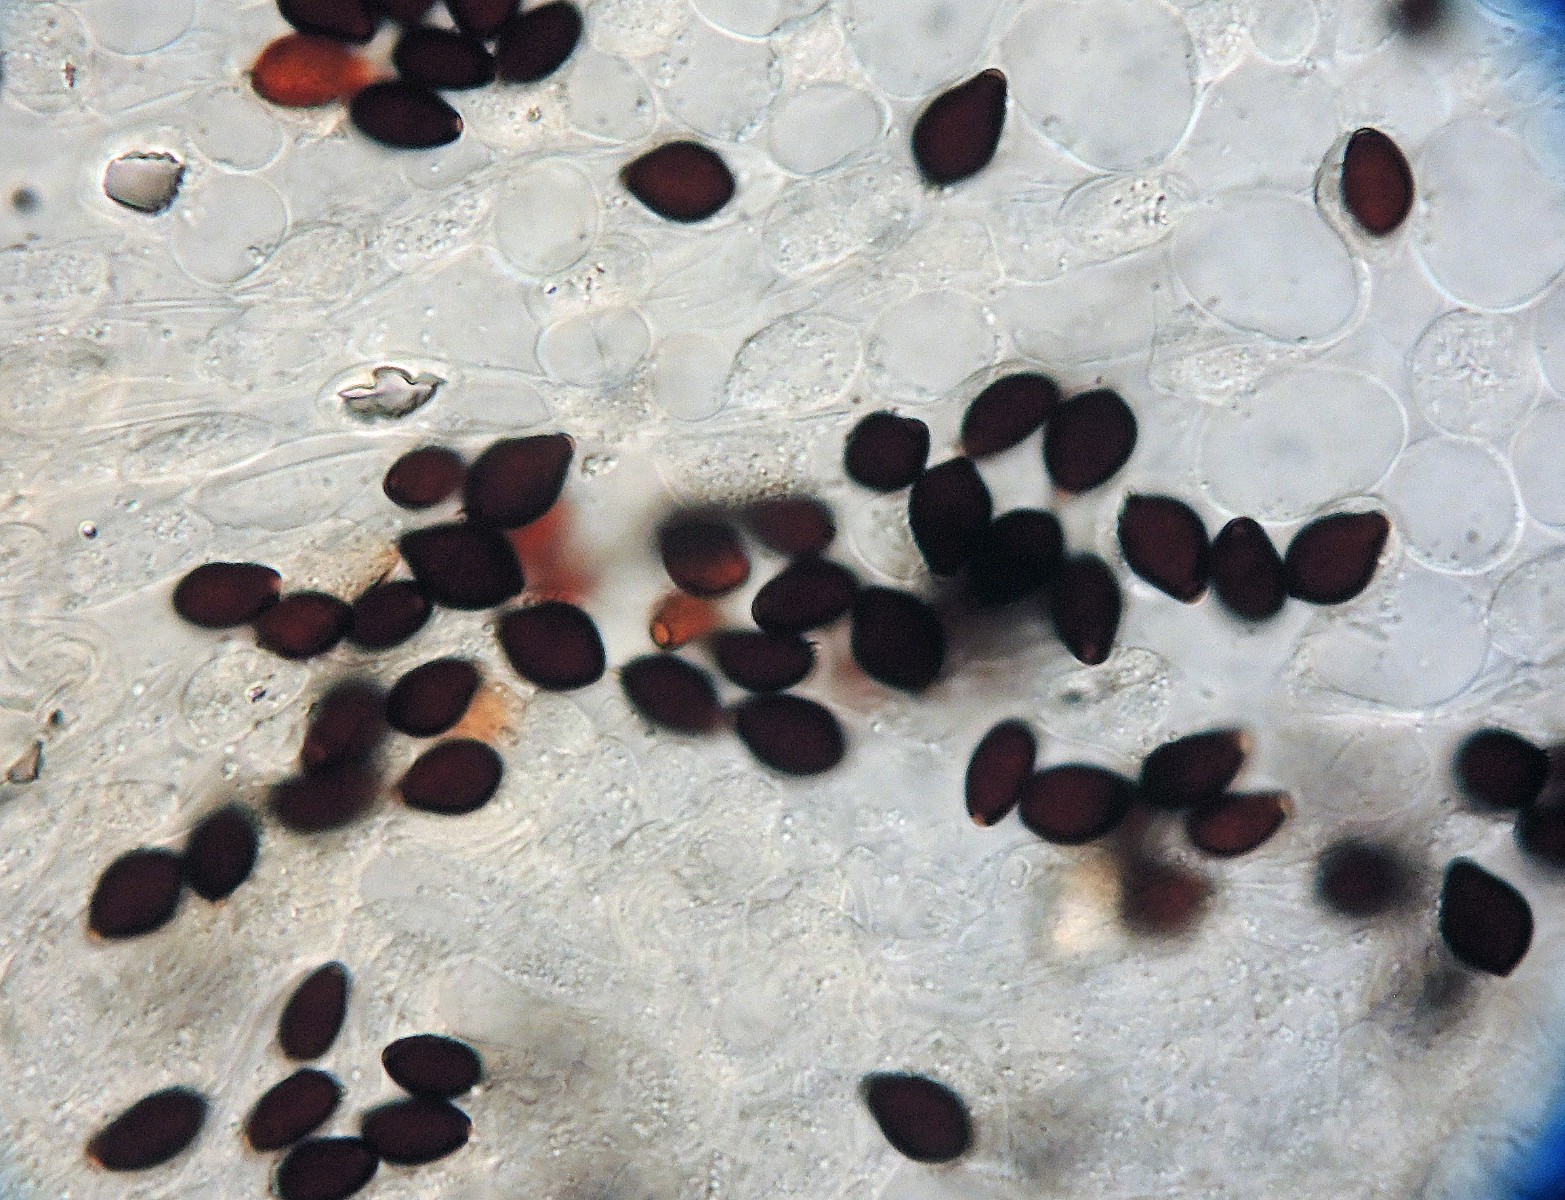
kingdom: Fungi
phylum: Basidiomycota
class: Agaricomycetes
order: Agaricales
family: Psathyrellaceae
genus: Parasola
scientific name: Parasola plicatilis
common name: plæne-hjulhat
